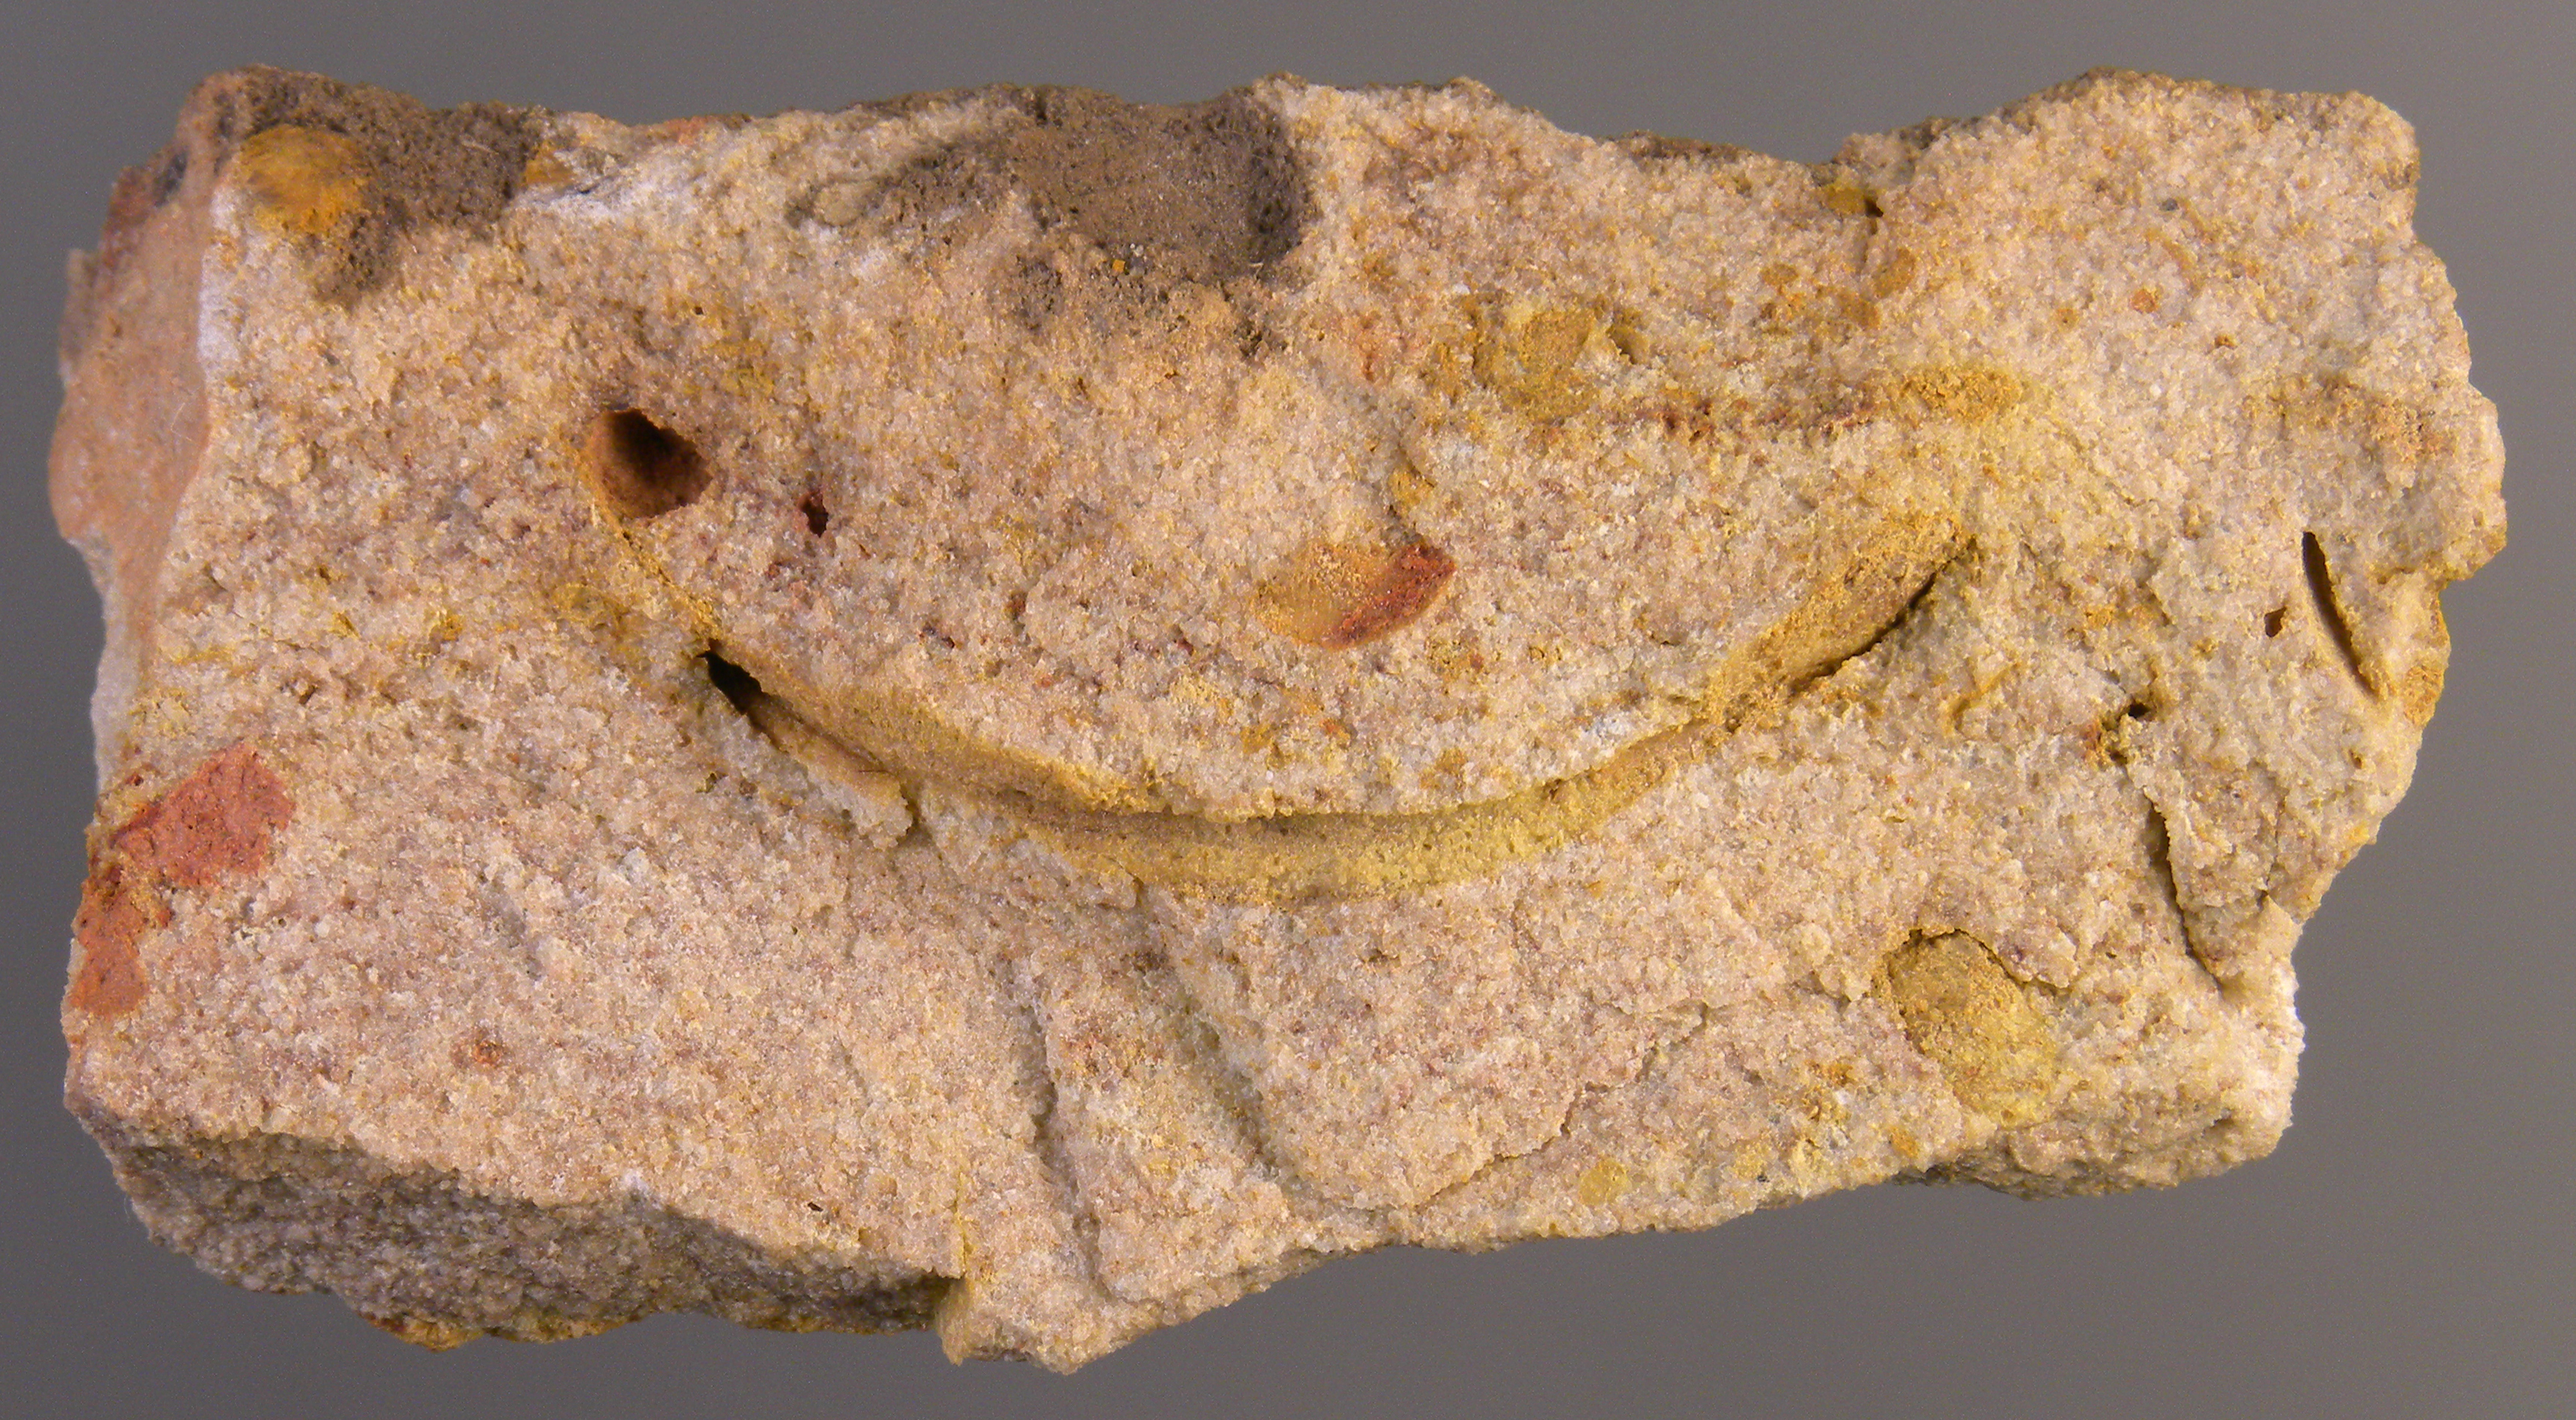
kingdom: Animalia
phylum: Arthropoda
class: Trilobita
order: Phacopida
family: Homalonotidae
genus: Digonus
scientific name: Digonus
